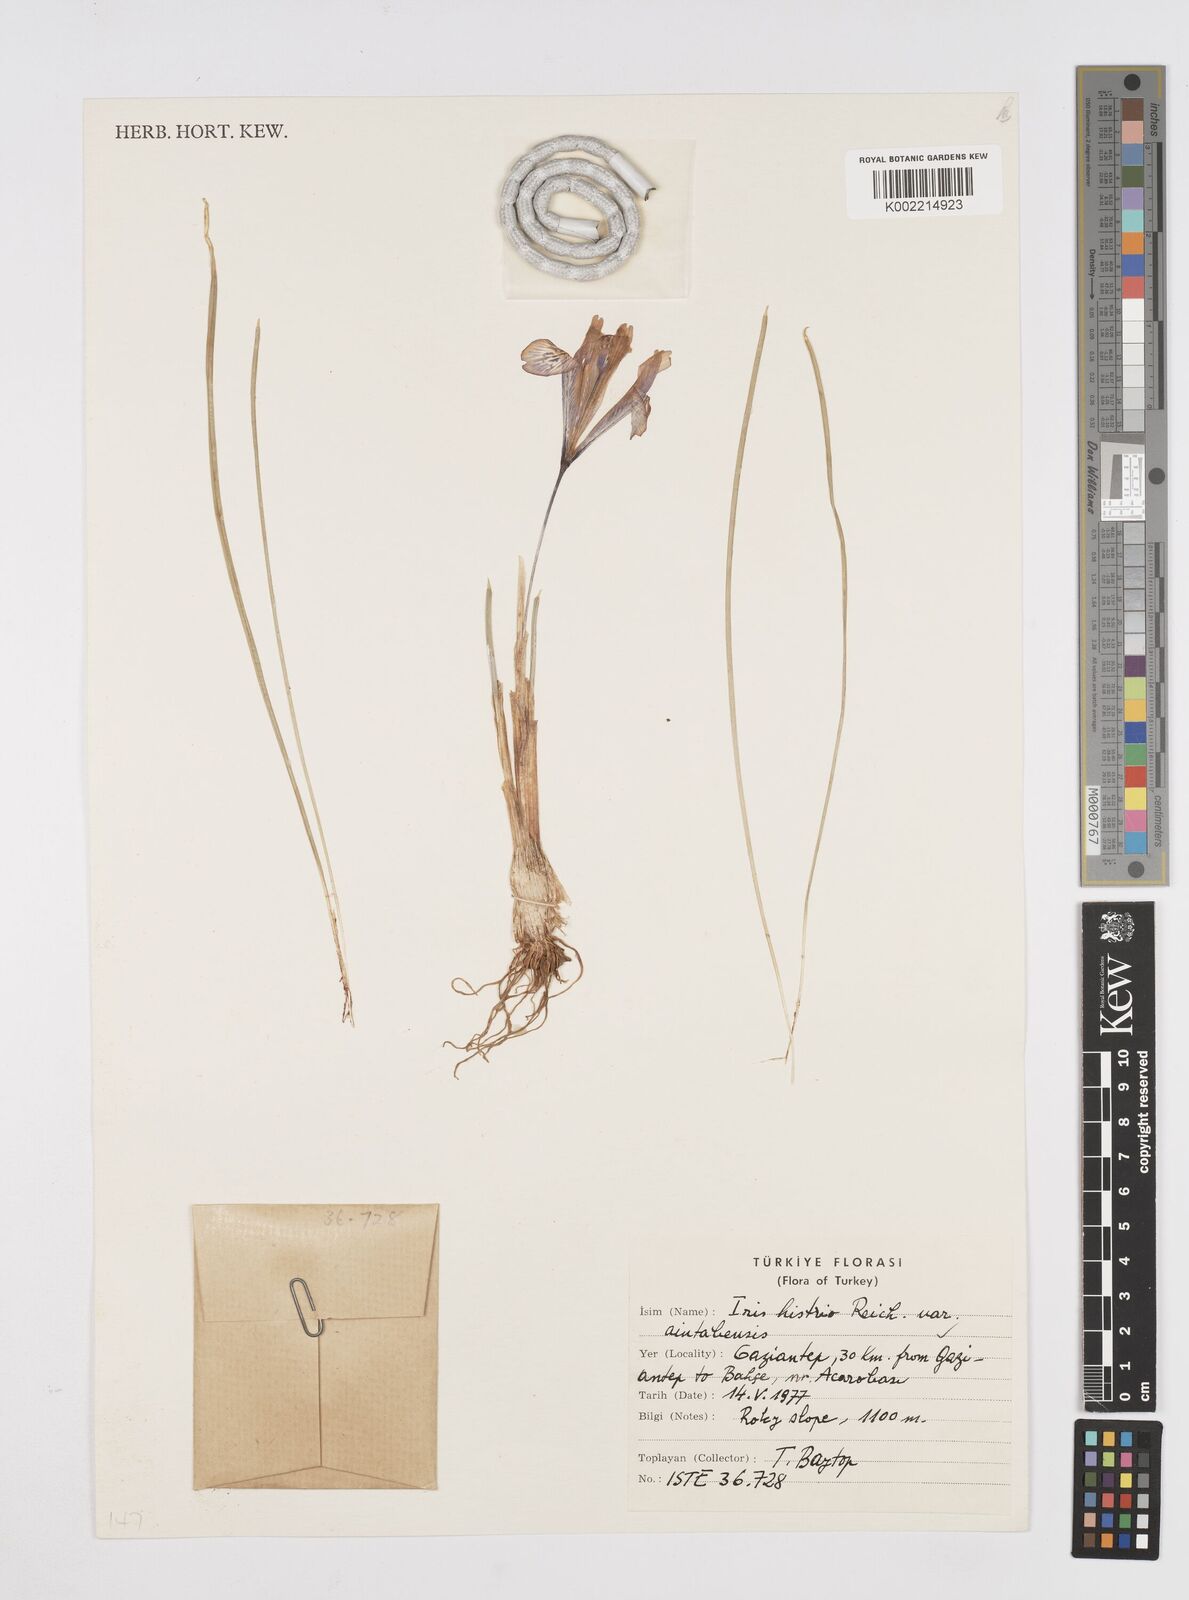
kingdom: Plantae
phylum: Tracheophyta
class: Liliopsida
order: Asparagales
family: Iridaceae
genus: Iris
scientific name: Iris histrio
